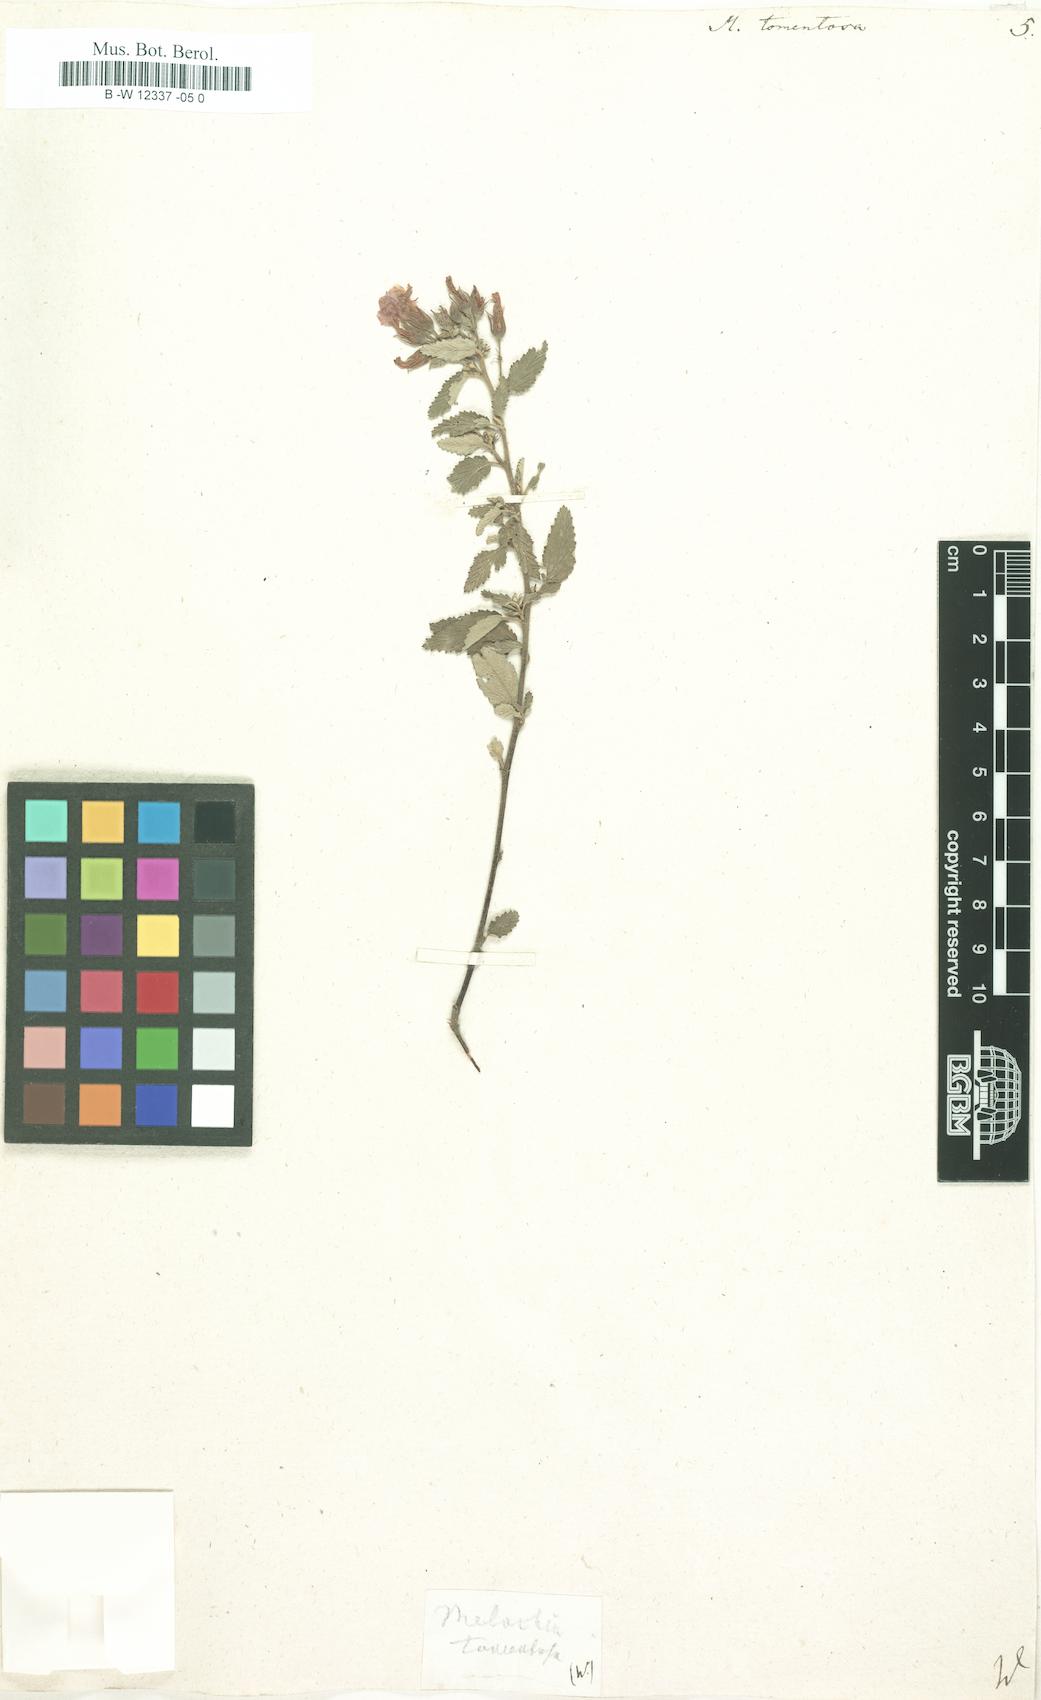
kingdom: Plantae
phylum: Tracheophyta
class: Magnoliopsida
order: Malvales
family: Malvaceae
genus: Melochia
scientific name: Melochia tomentosa
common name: Black torch
